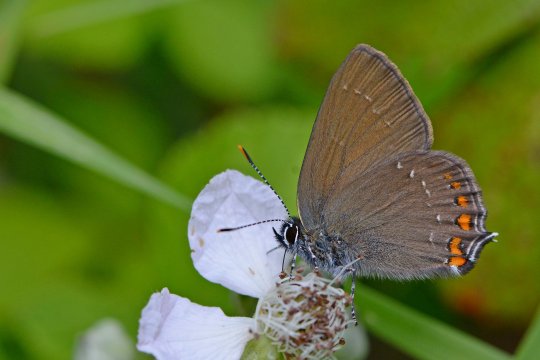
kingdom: Animalia
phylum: Arthropoda
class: Insecta
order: Lepidoptera
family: Lycaenidae
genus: Nordmannia
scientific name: Nordmannia ilicis
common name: Ilex Hairstreak
